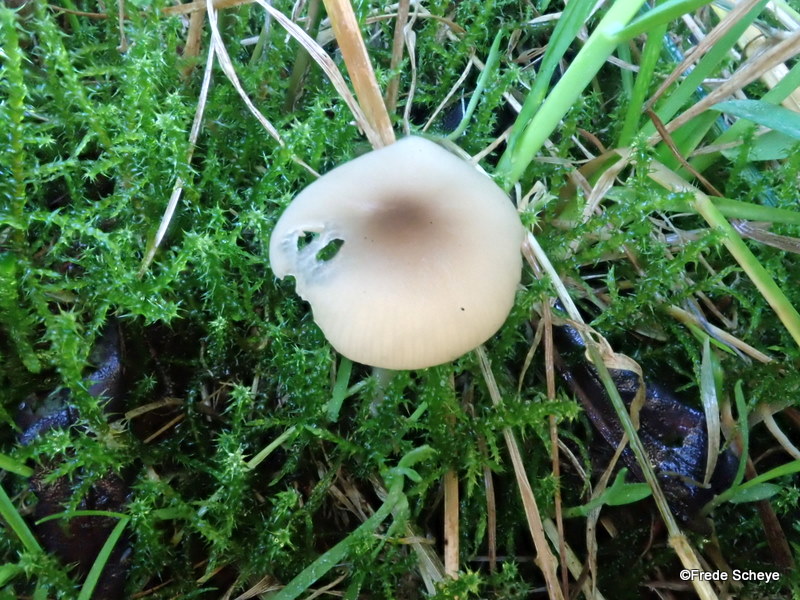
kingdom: Fungi
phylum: Basidiomycota
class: Agaricomycetes
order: Agaricales
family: Tricholomataceae
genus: Clitocybe
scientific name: Clitocybe fragrans
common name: vellugtende tragthat
